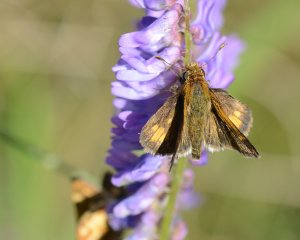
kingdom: Animalia
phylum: Arthropoda
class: Insecta
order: Lepidoptera
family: Hesperiidae
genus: Polites
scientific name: Polites coras
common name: Peck's Skipper
